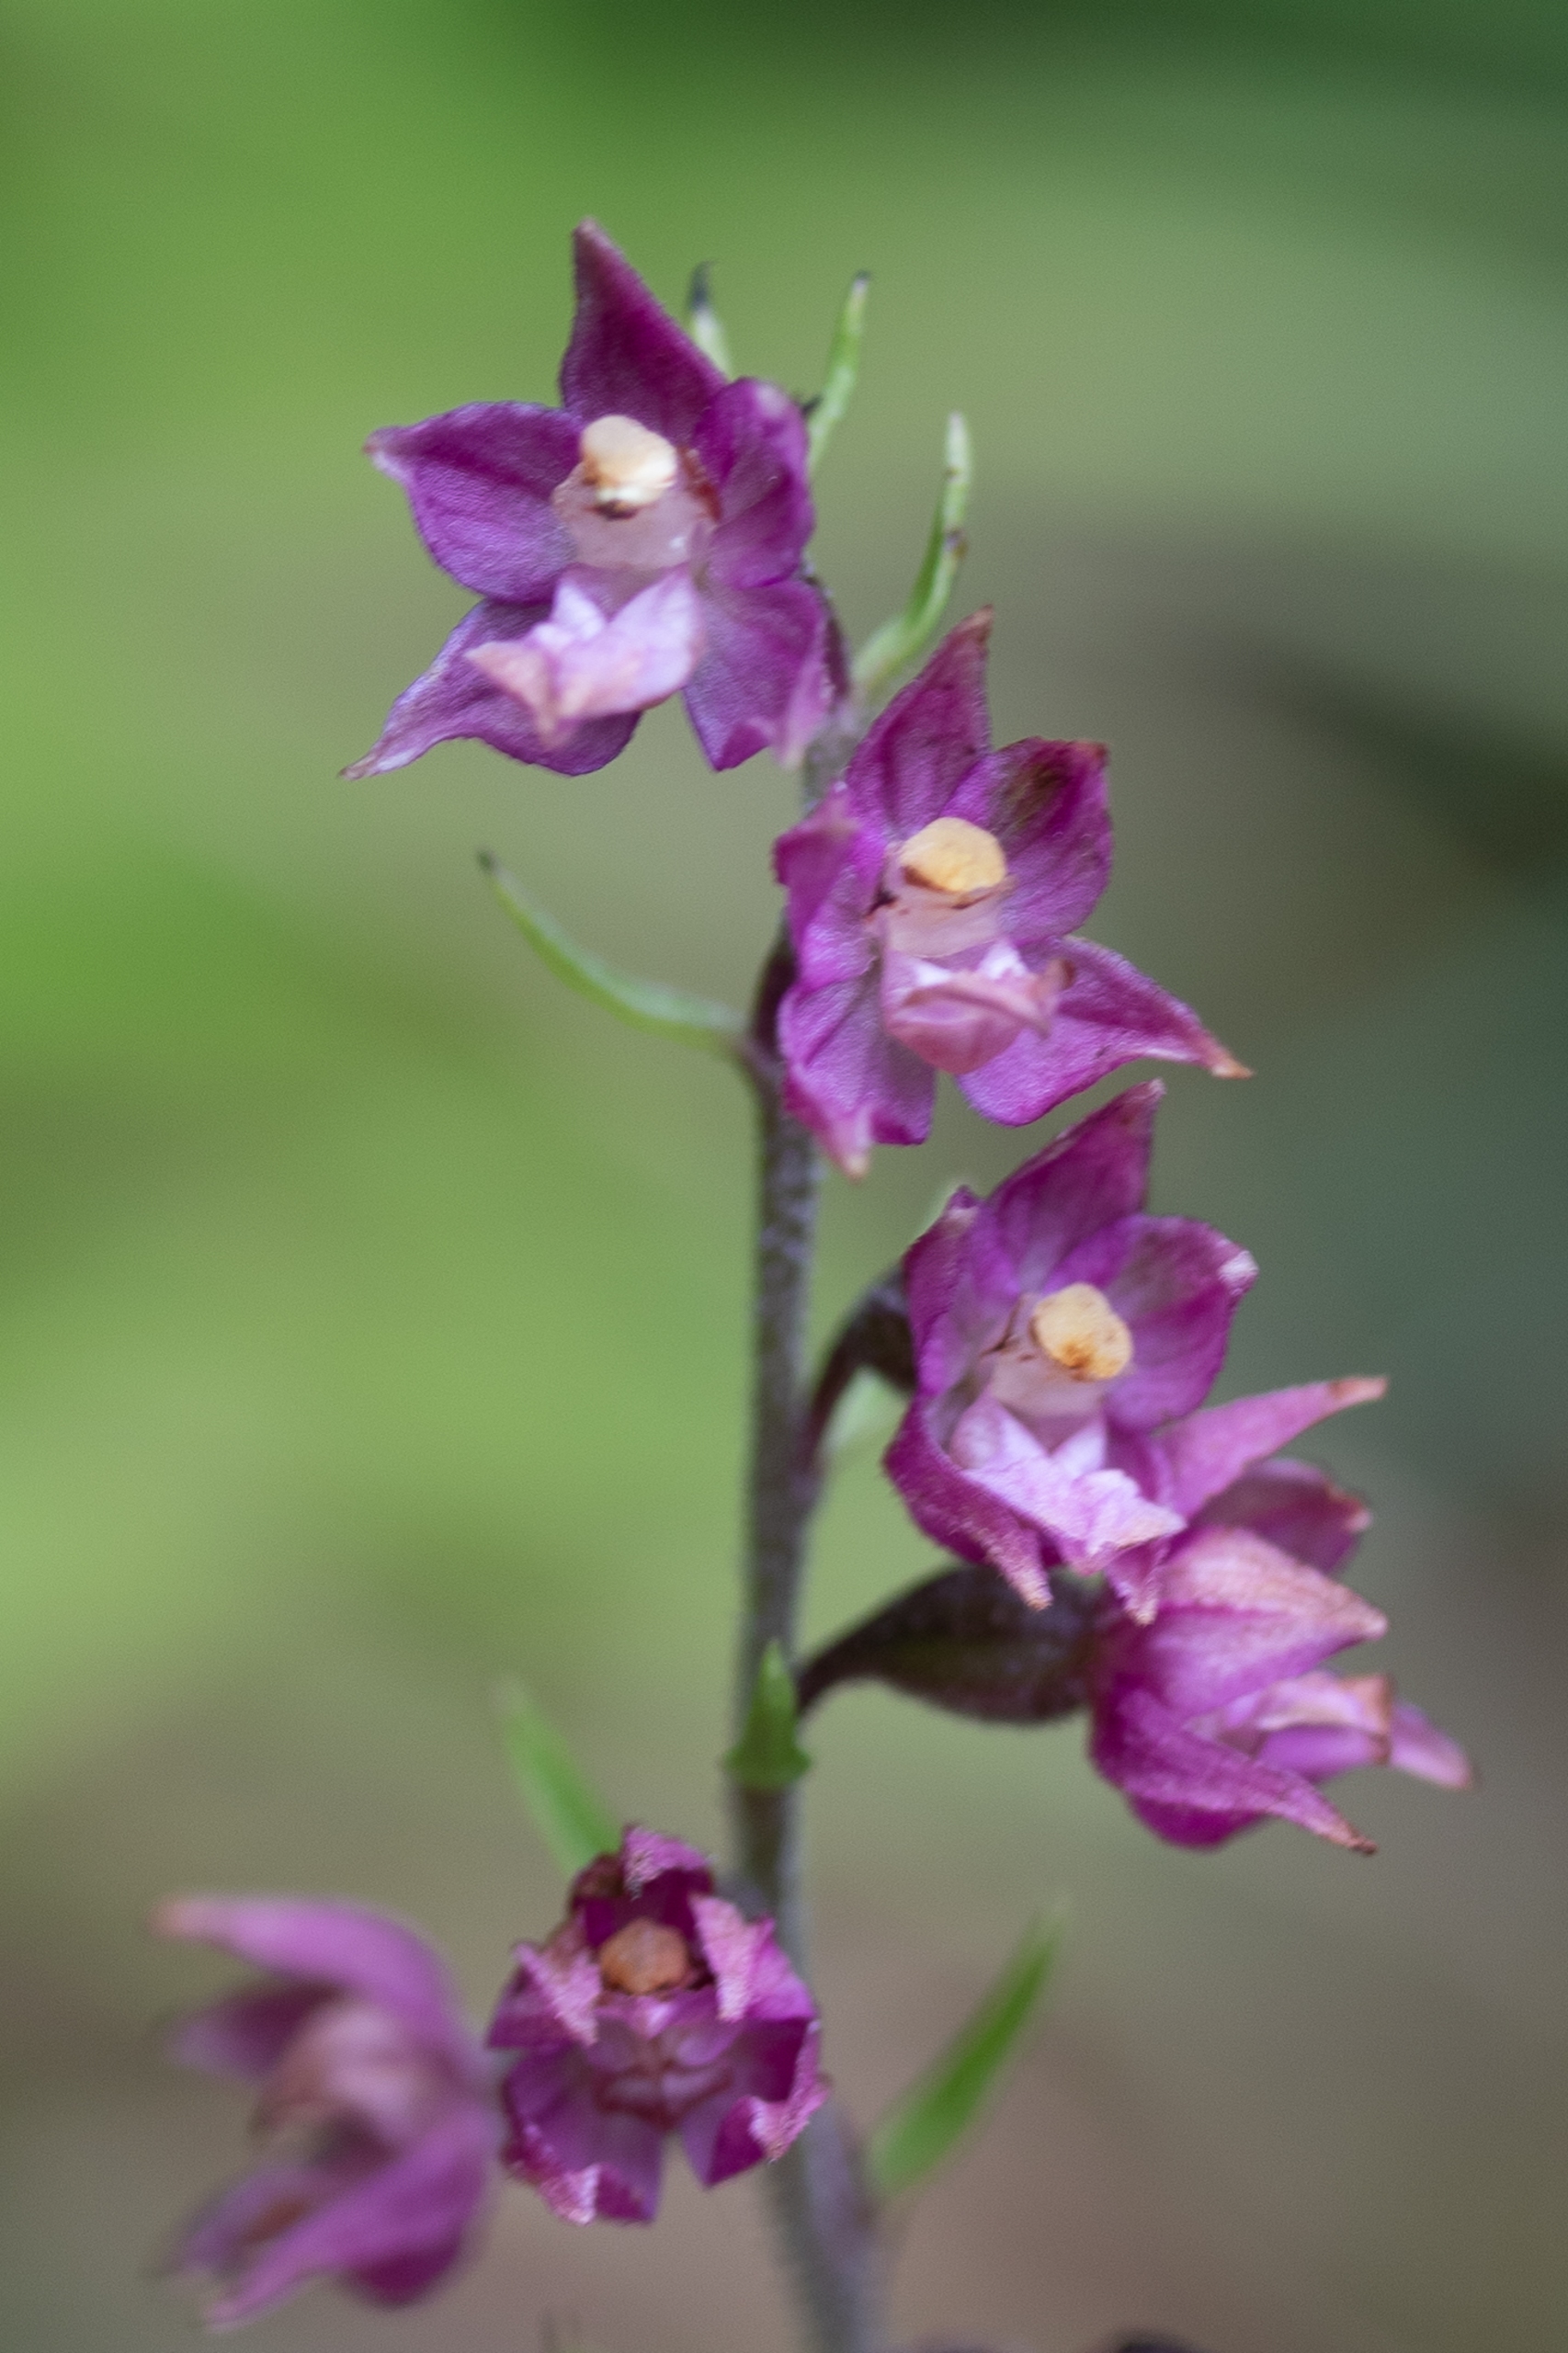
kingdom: Plantae
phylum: Tracheophyta
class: Liliopsida
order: Asparagales
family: Orchidaceae
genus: Epipactis
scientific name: Epipactis atrorubens
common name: Rød hullæbe
